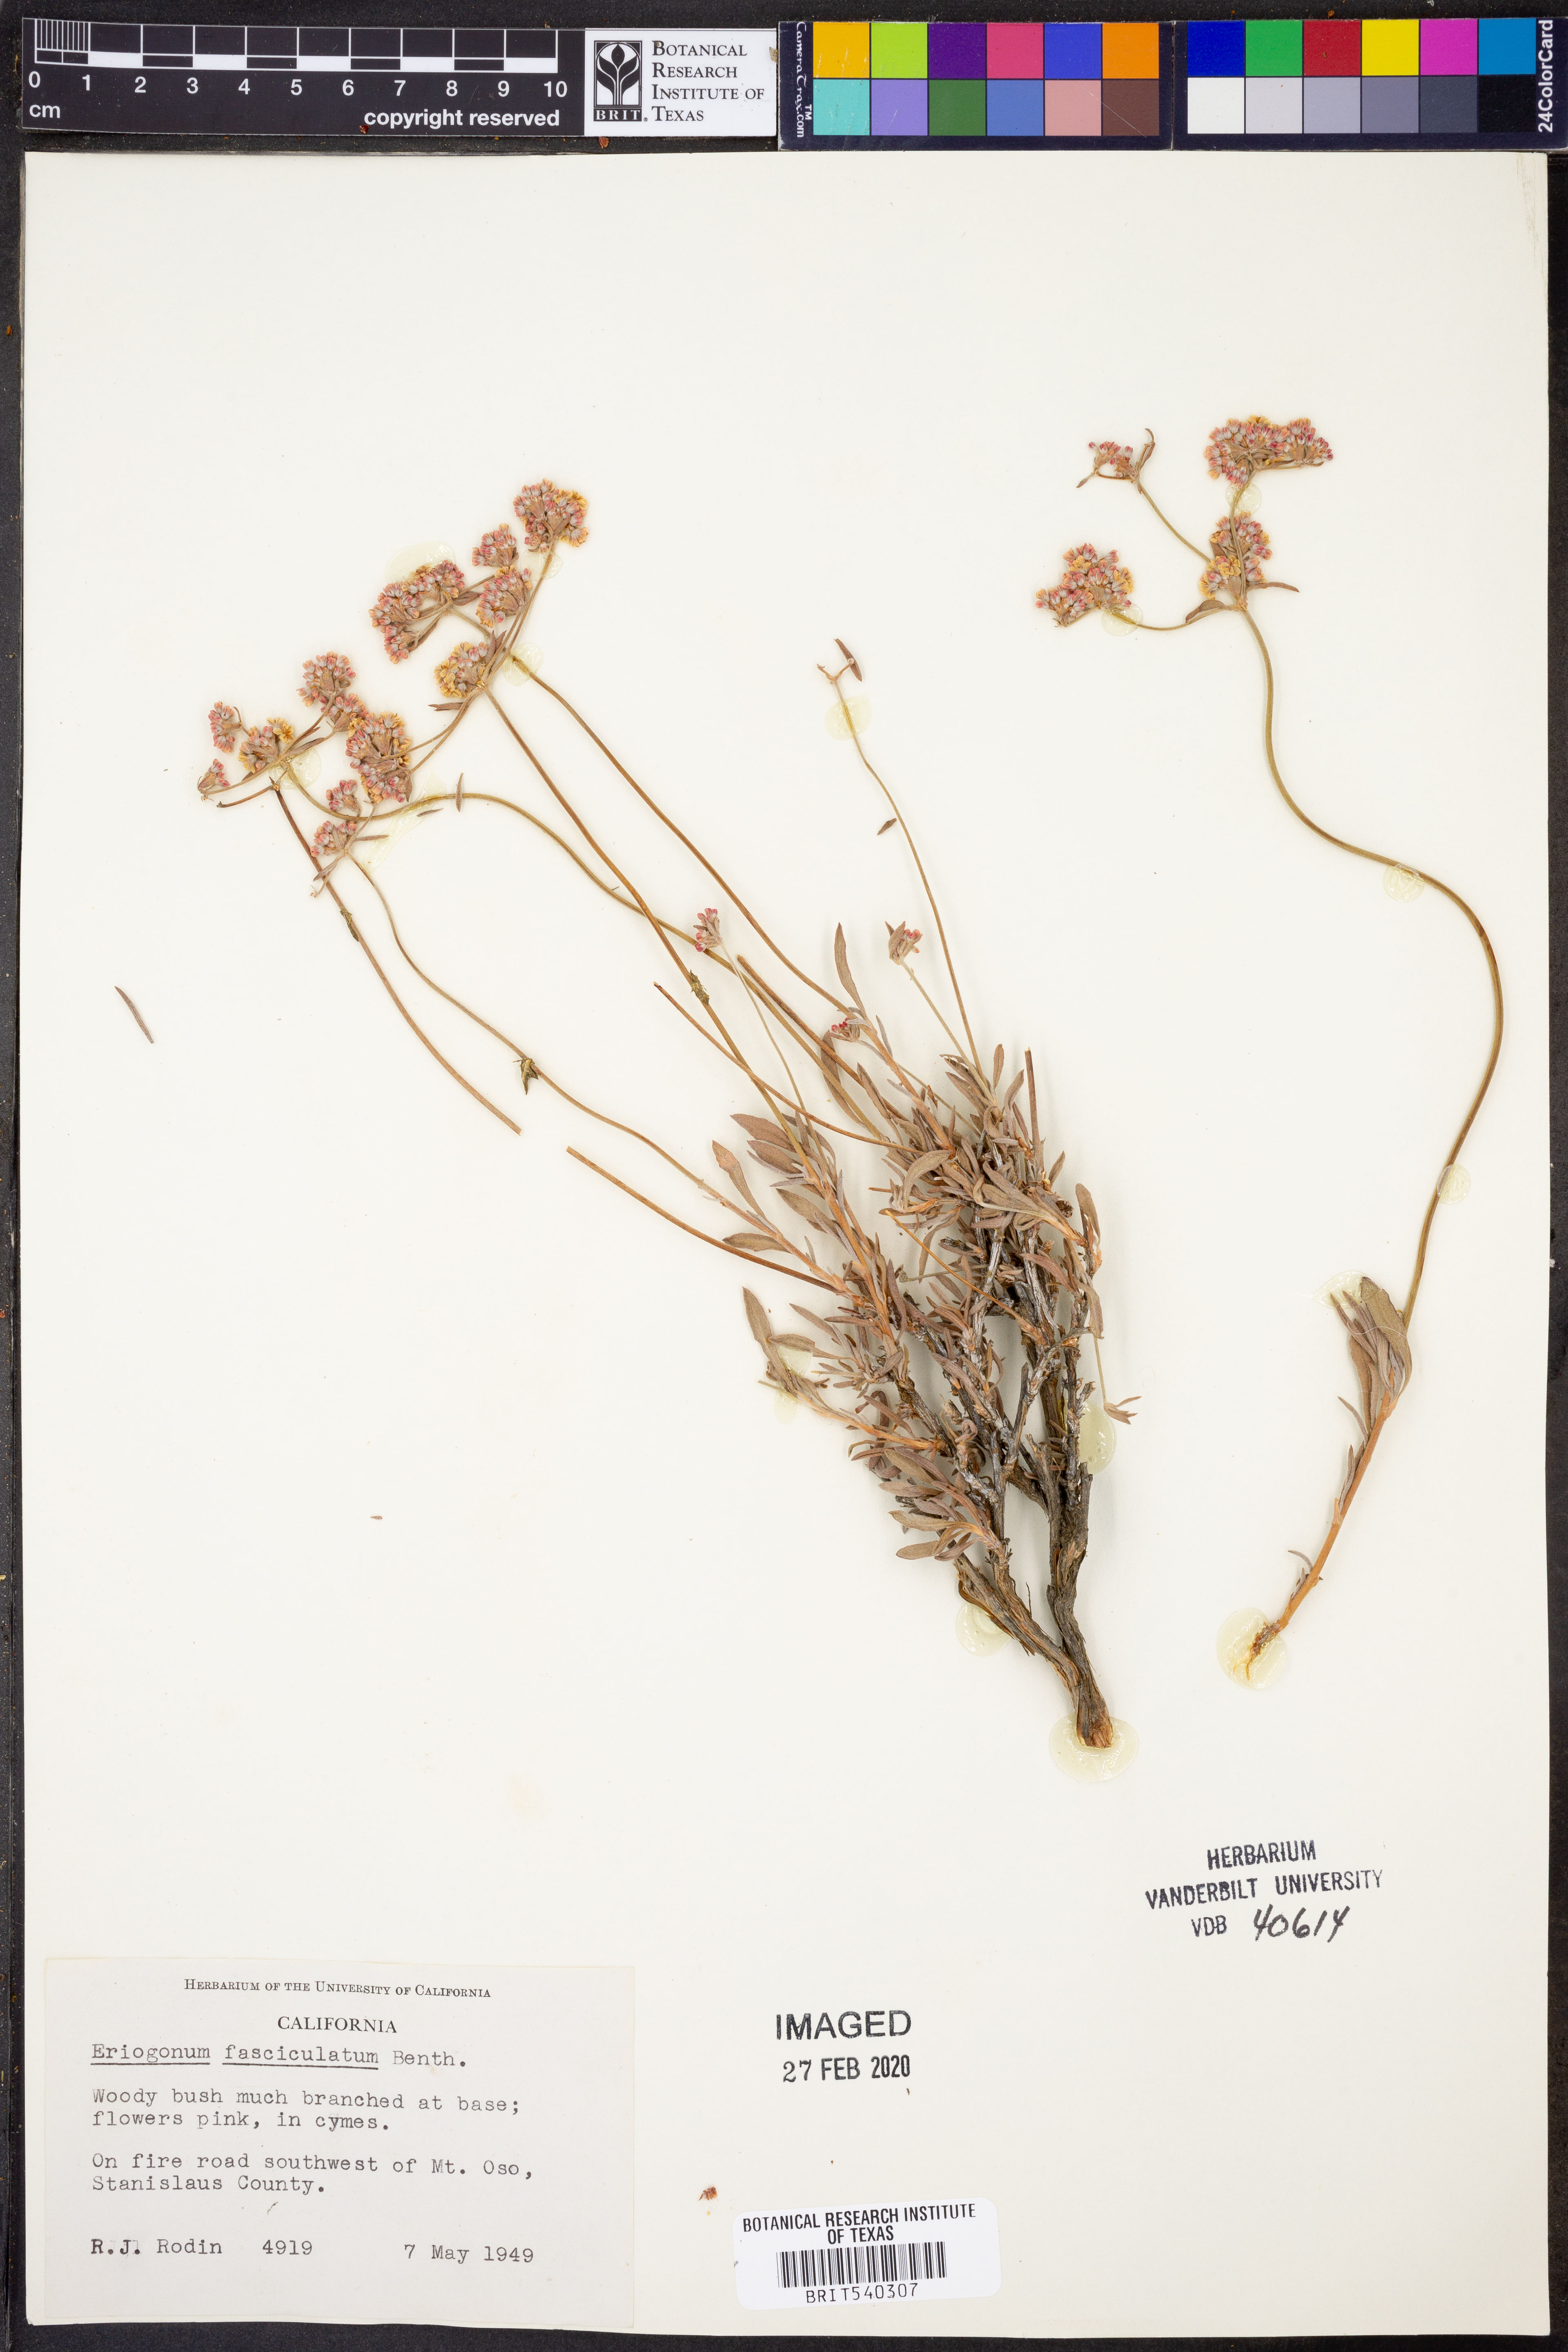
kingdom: Plantae
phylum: Tracheophyta
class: Magnoliopsida
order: Caryophyllales
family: Polygonaceae
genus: Eriogonum
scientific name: Eriogonum fasciculatum
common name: California wild buckwheat
